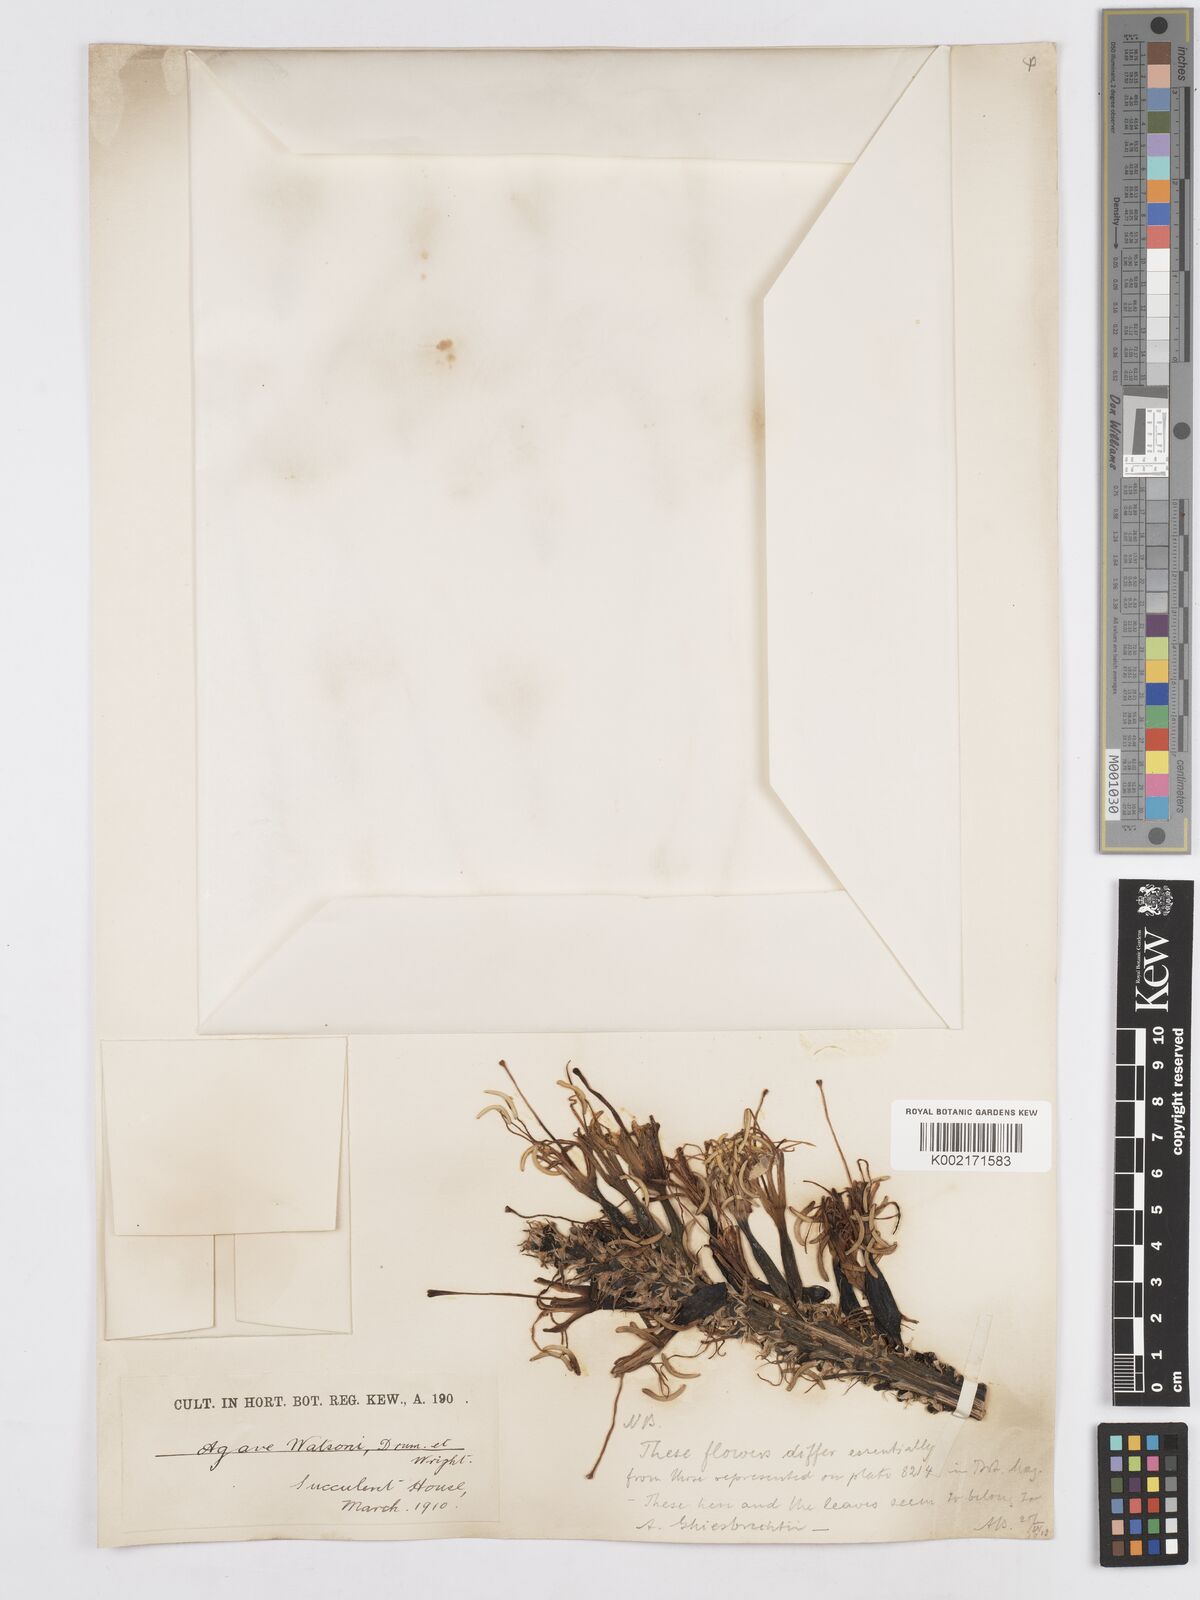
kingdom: Plantae
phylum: Tracheophyta
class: Liliopsida
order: Asparagales
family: Asparagaceae
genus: Agave
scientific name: Agave watsonii
